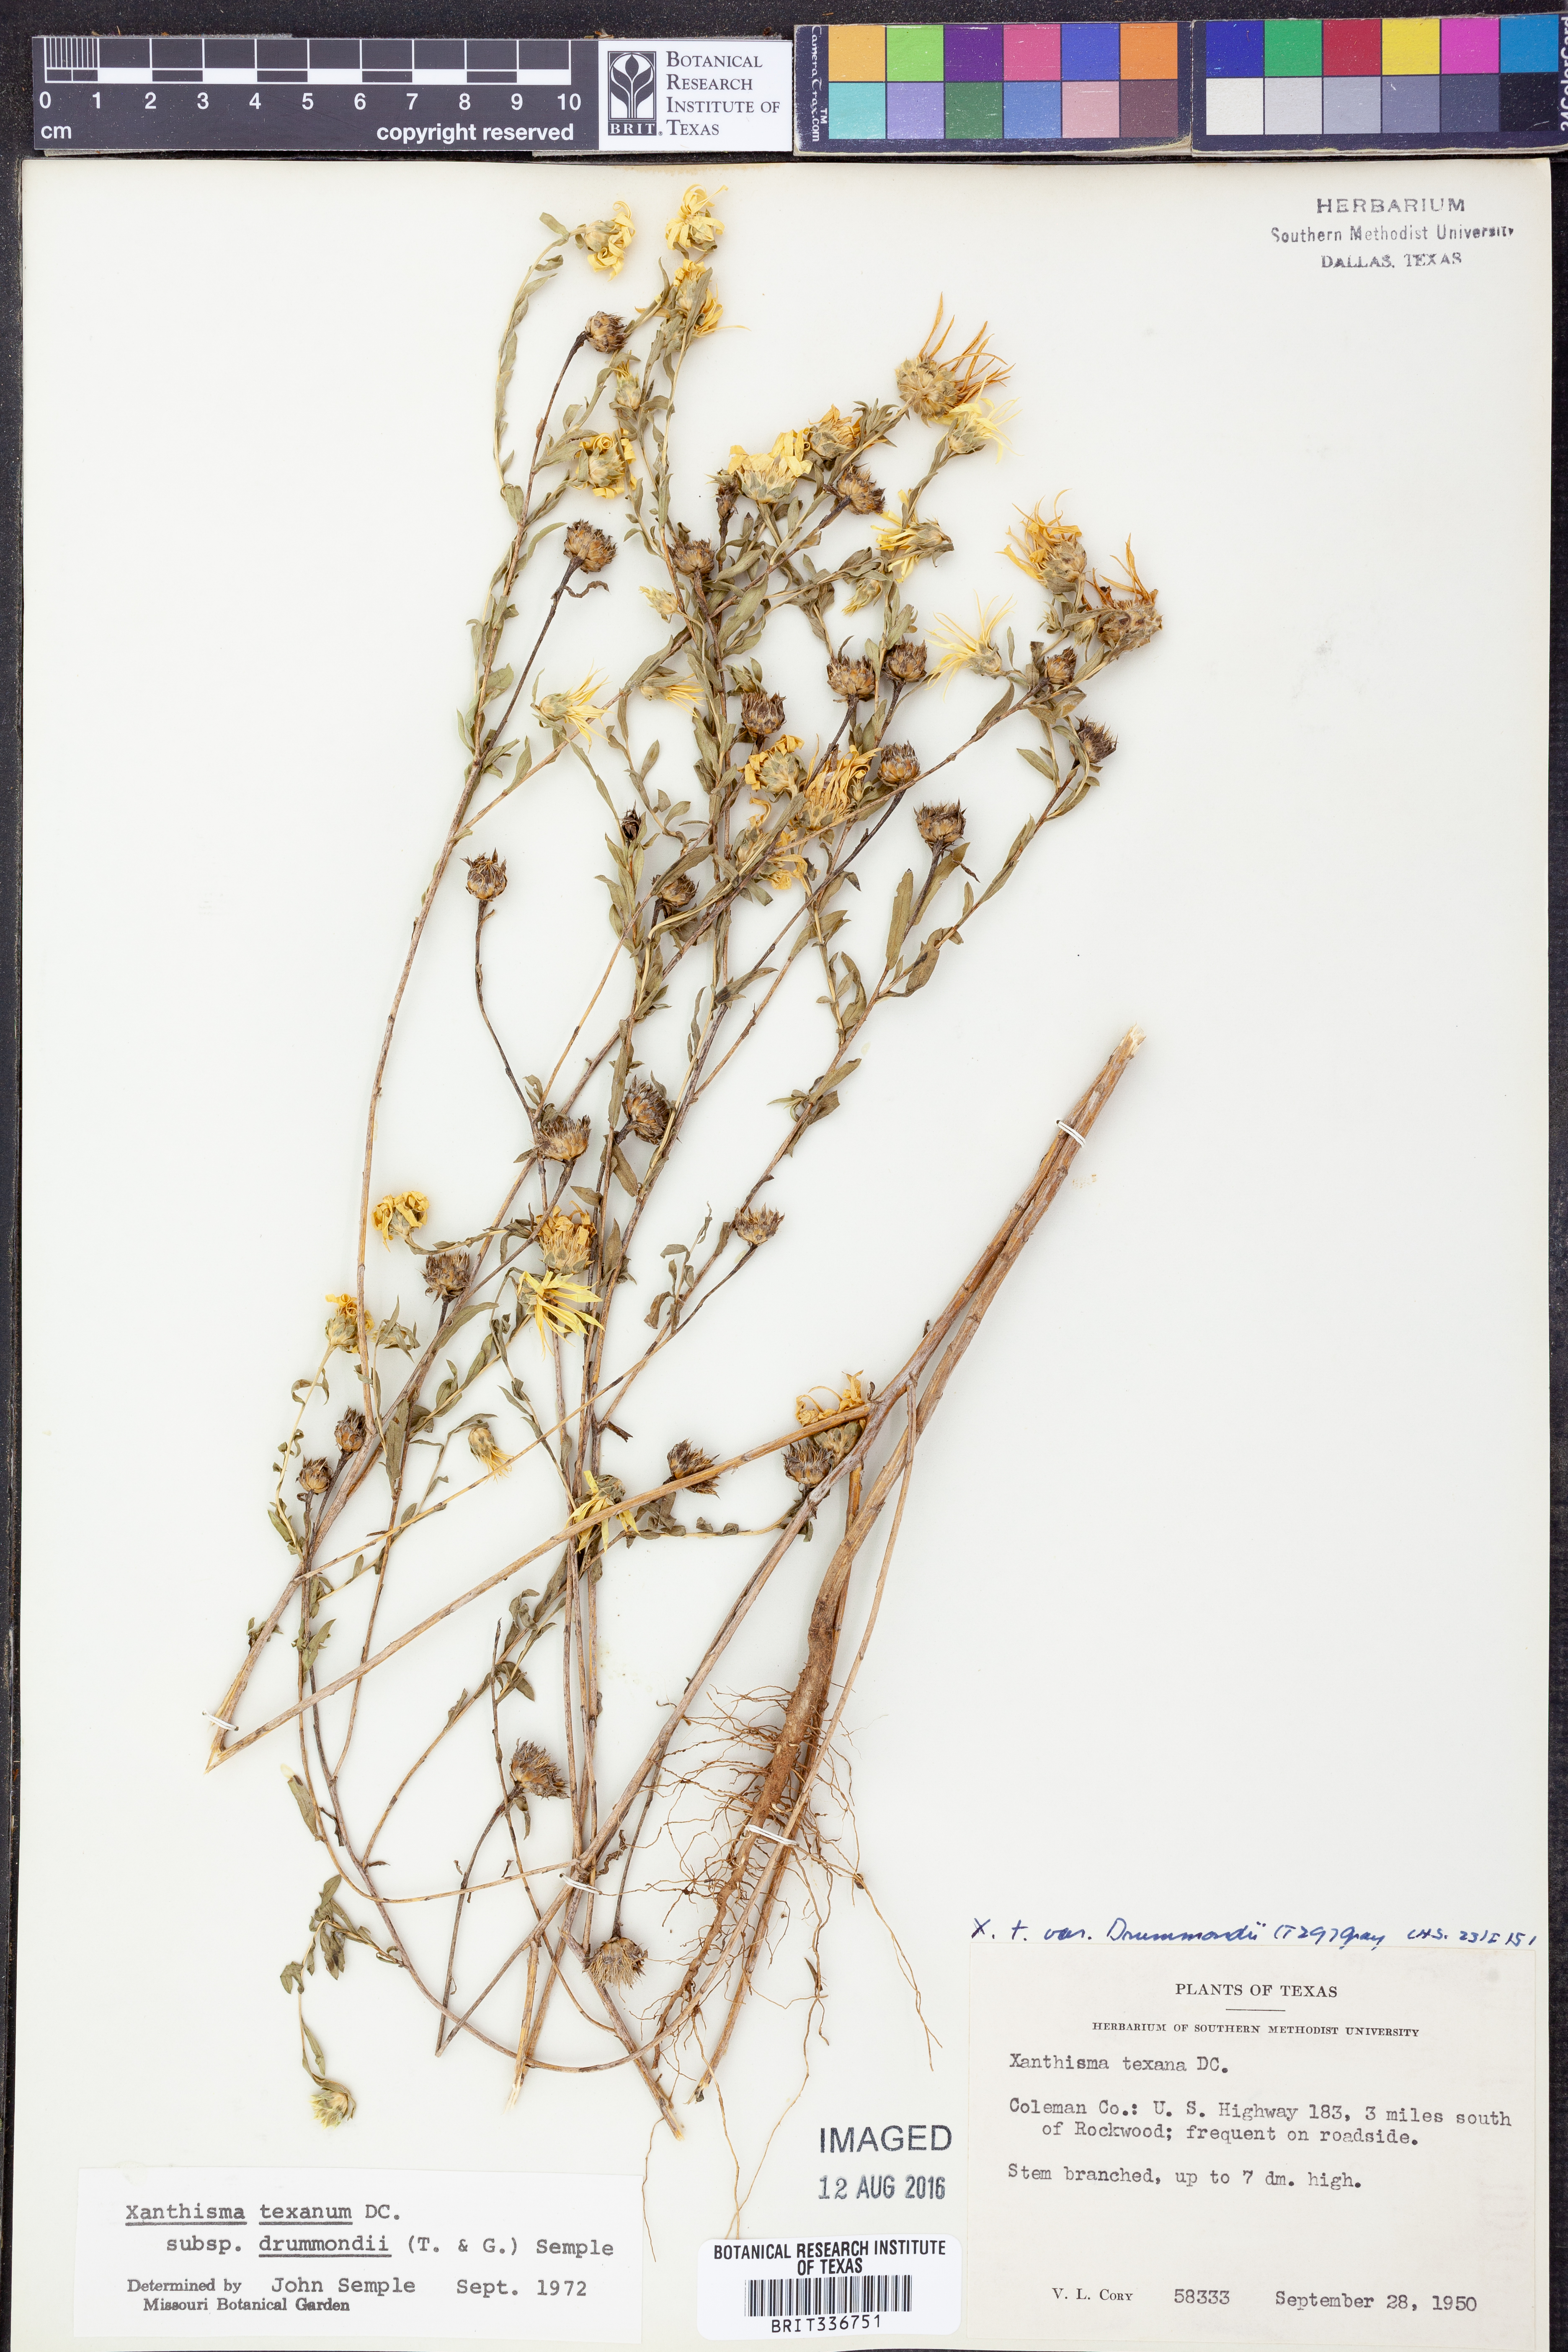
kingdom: Plantae
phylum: Tracheophyta
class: Magnoliopsida
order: Asterales
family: Asteraceae
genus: Xanthisma
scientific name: Xanthisma texanum
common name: Texas sleepy daisy
